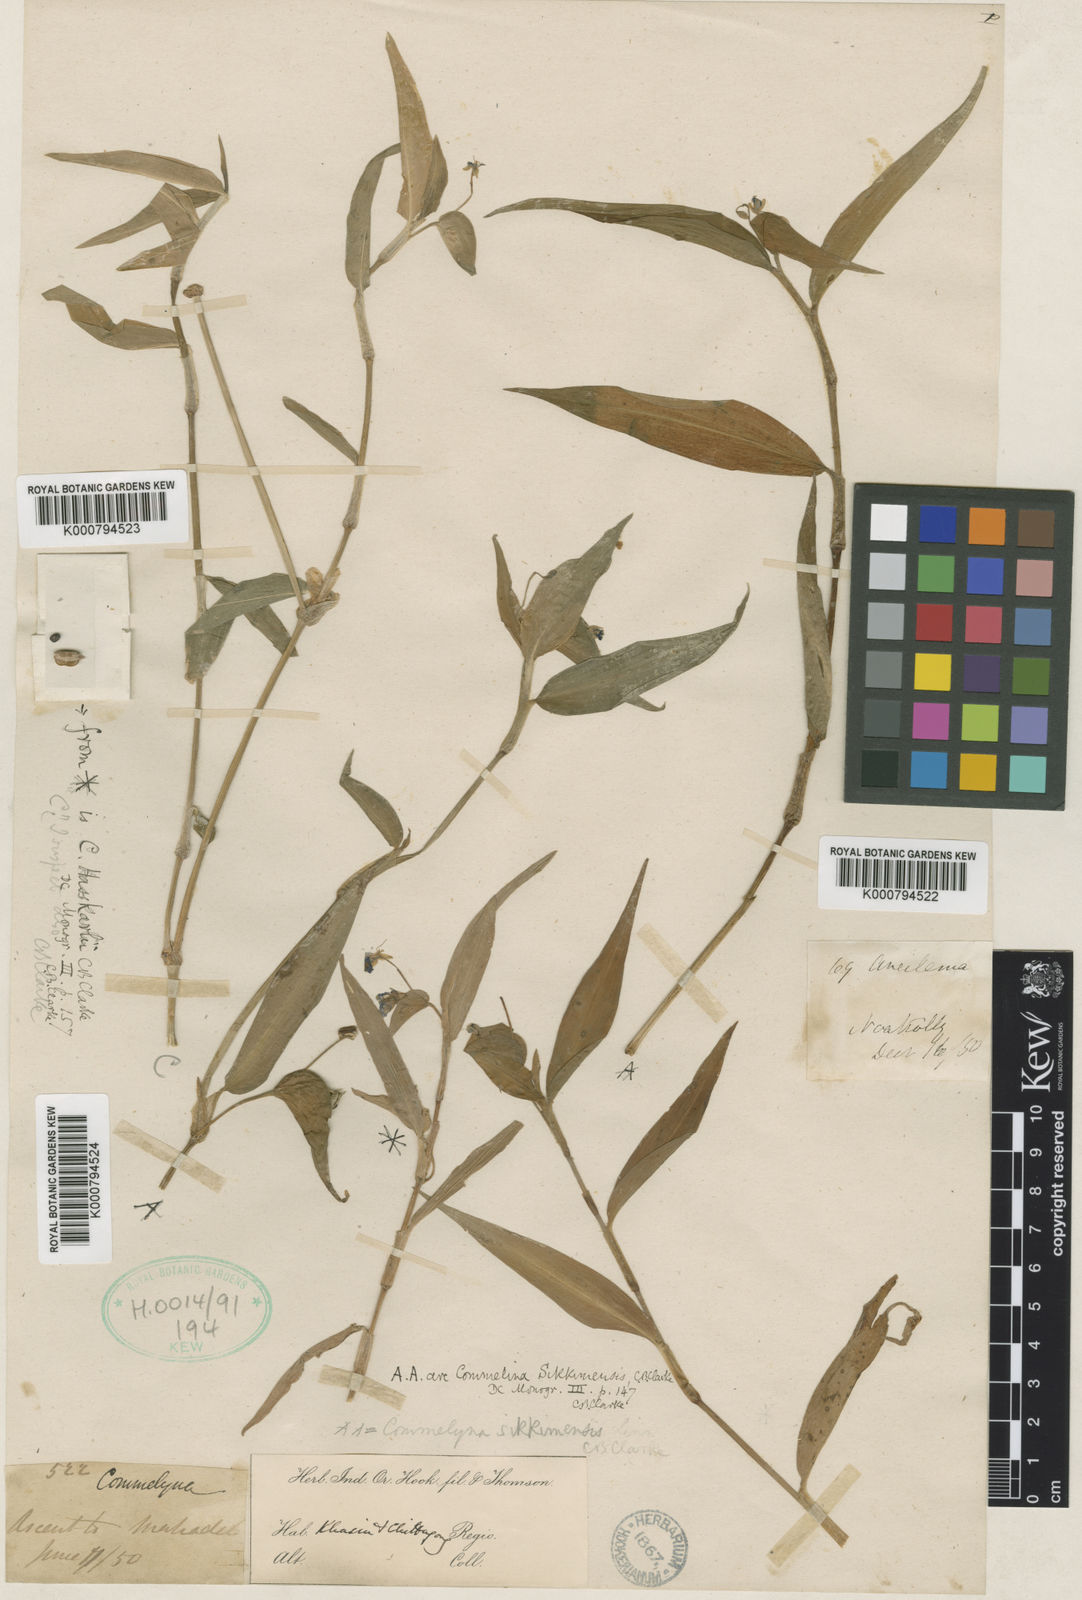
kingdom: Plantae
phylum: Tracheophyta
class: Liliopsida
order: Commelinales
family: Commelinaceae
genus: Commelina
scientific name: Commelina sikkimensis
